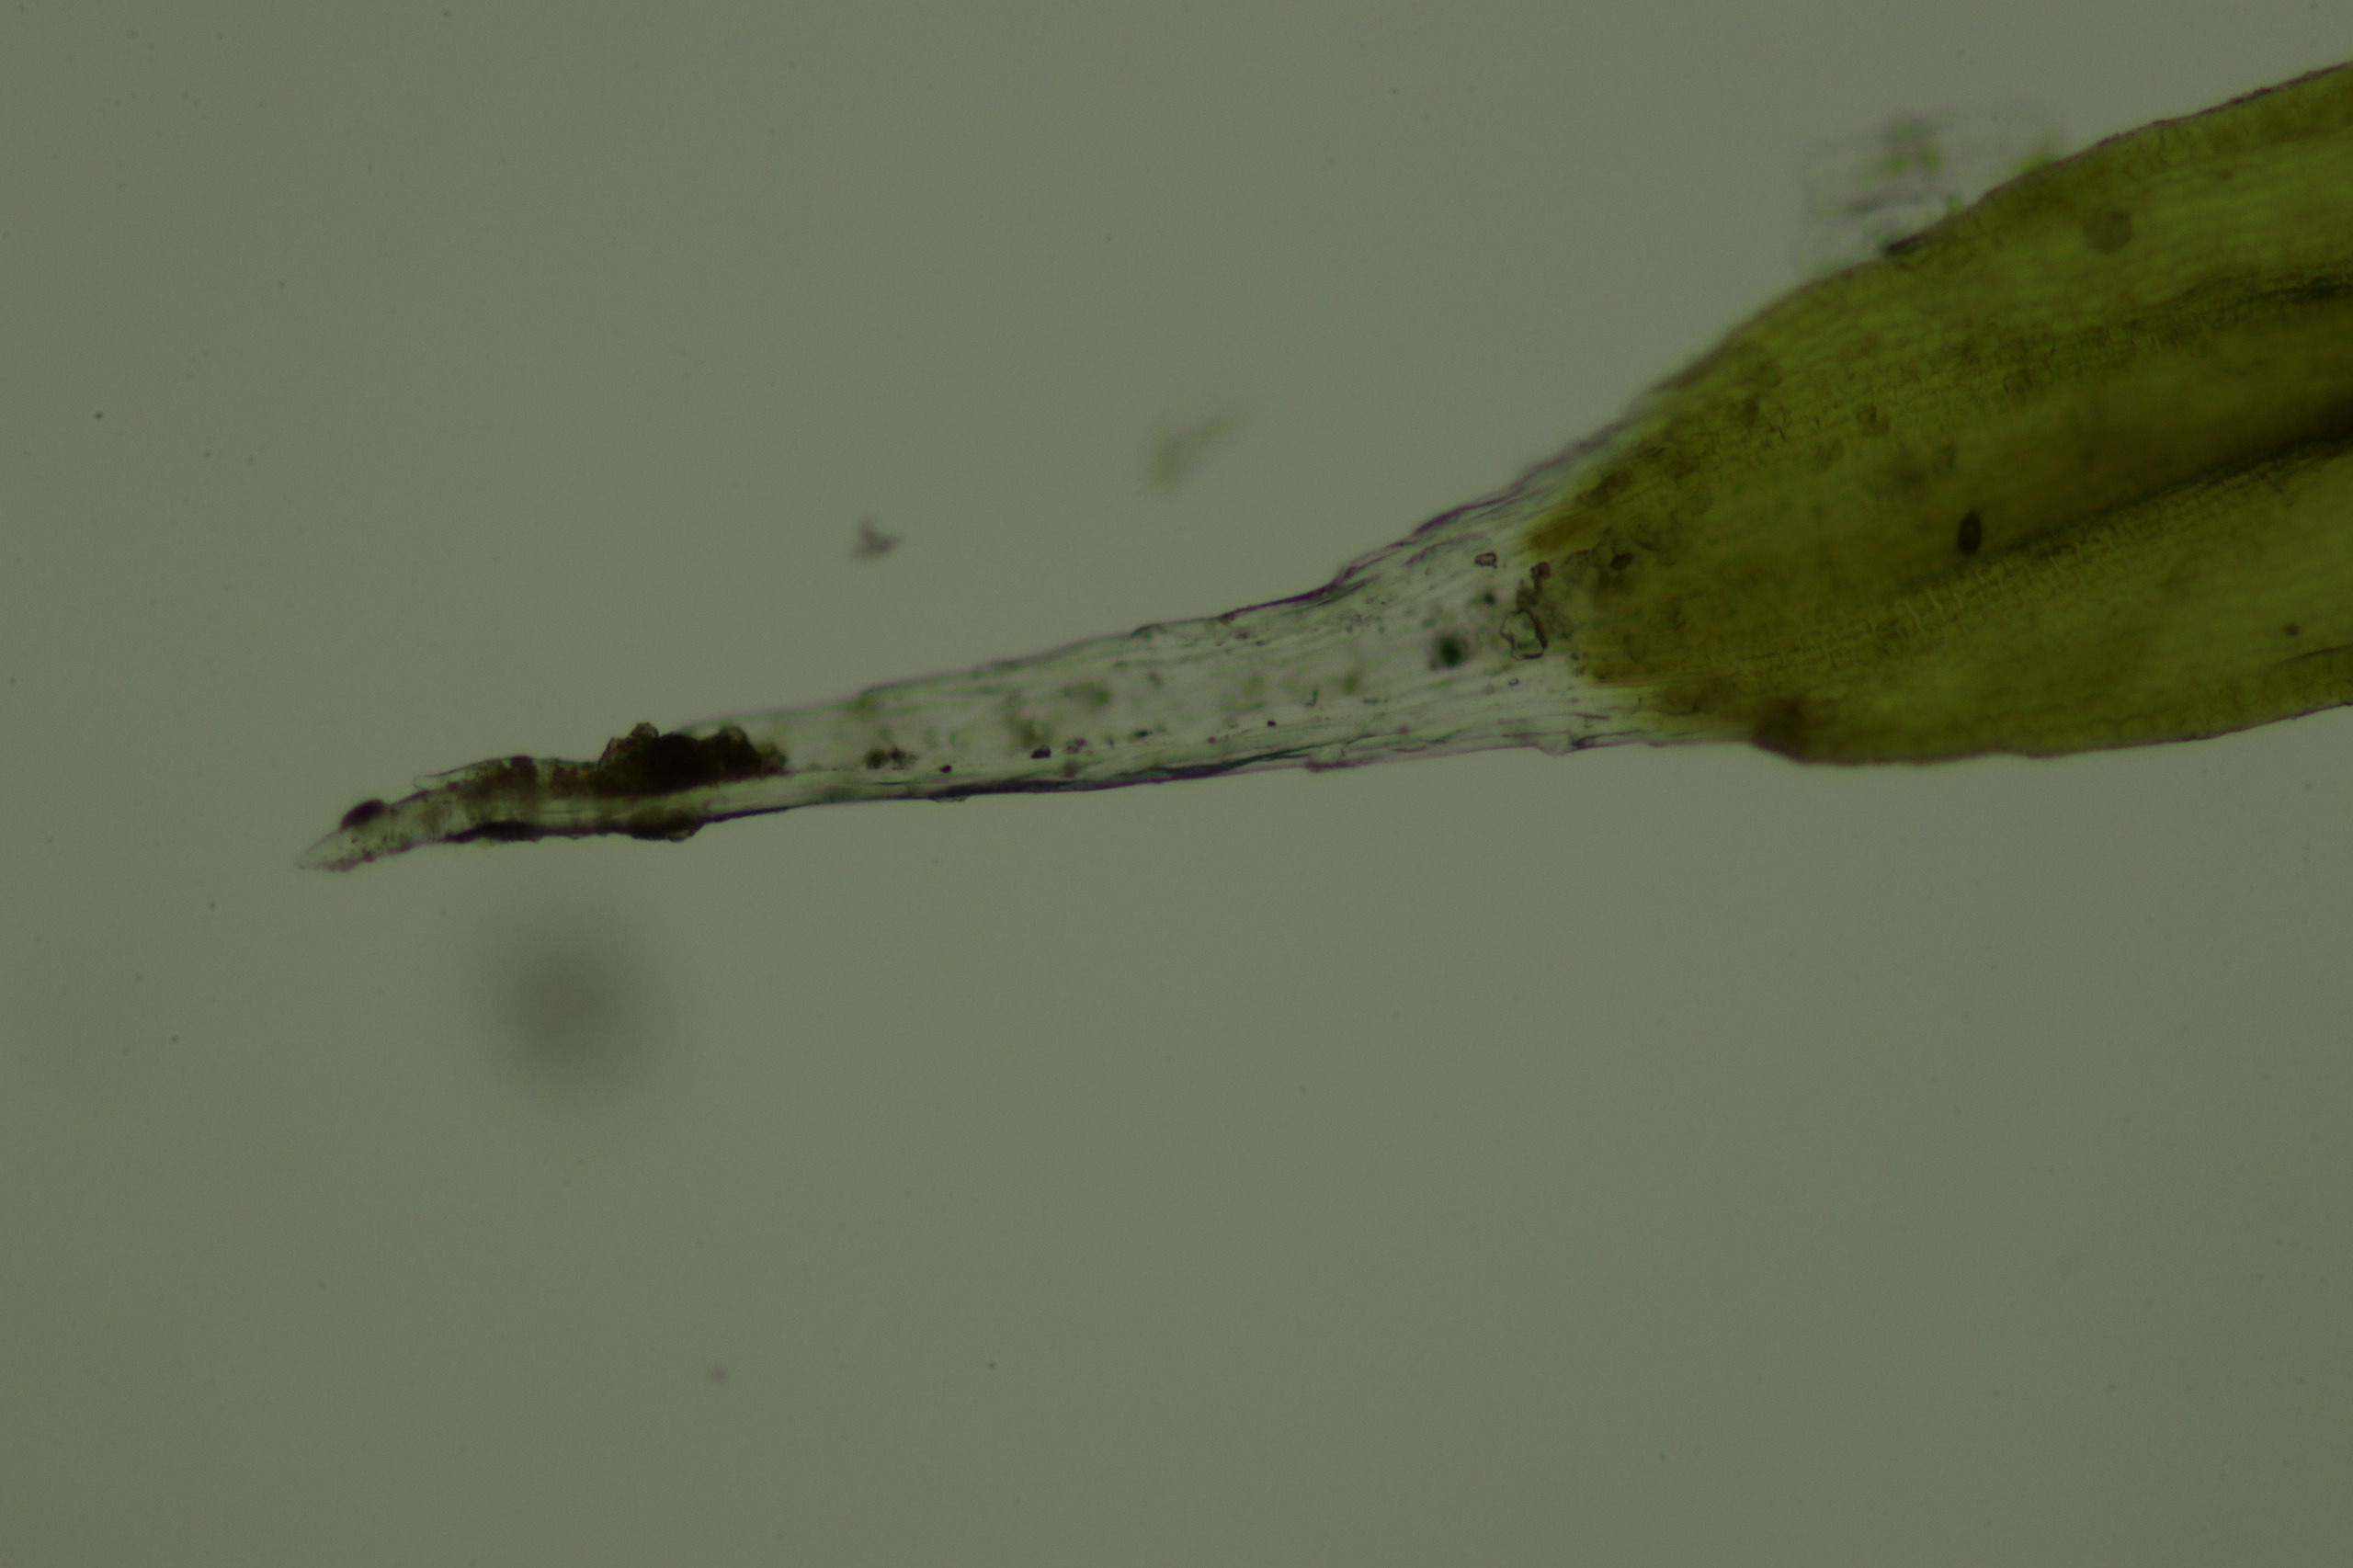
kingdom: Plantae
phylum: Bryophyta
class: Bryopsida
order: Grimmiales
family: Grimmiaceae
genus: Bucklandiella
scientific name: Bucklandiella affinis
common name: Spinkel børstemos
